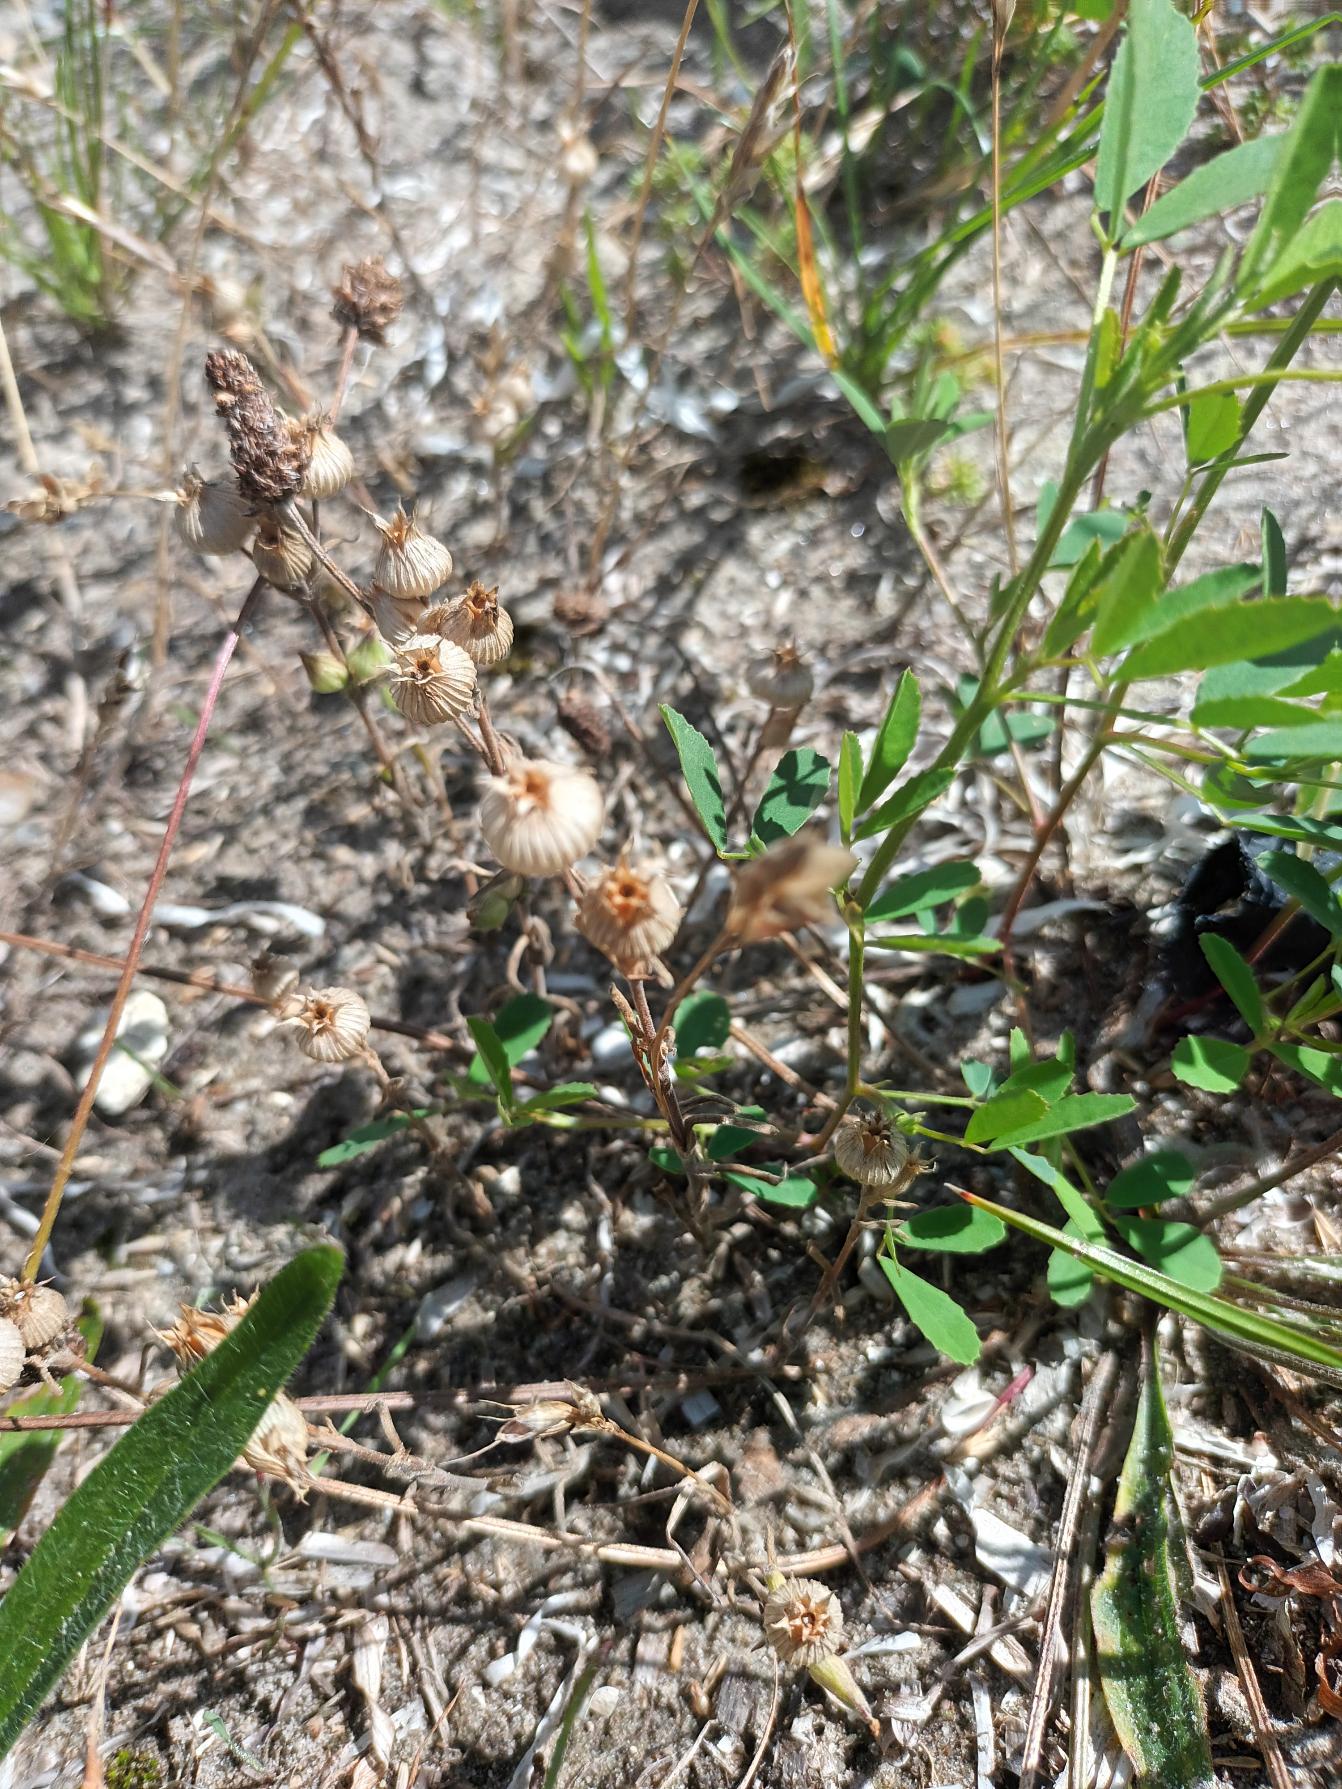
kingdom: Plantae
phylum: Tracheophyta
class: Magnoliopsida
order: Caryophyllales
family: Caryophyllaceae
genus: Silene
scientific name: Silene conica
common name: Kegle-limurt
